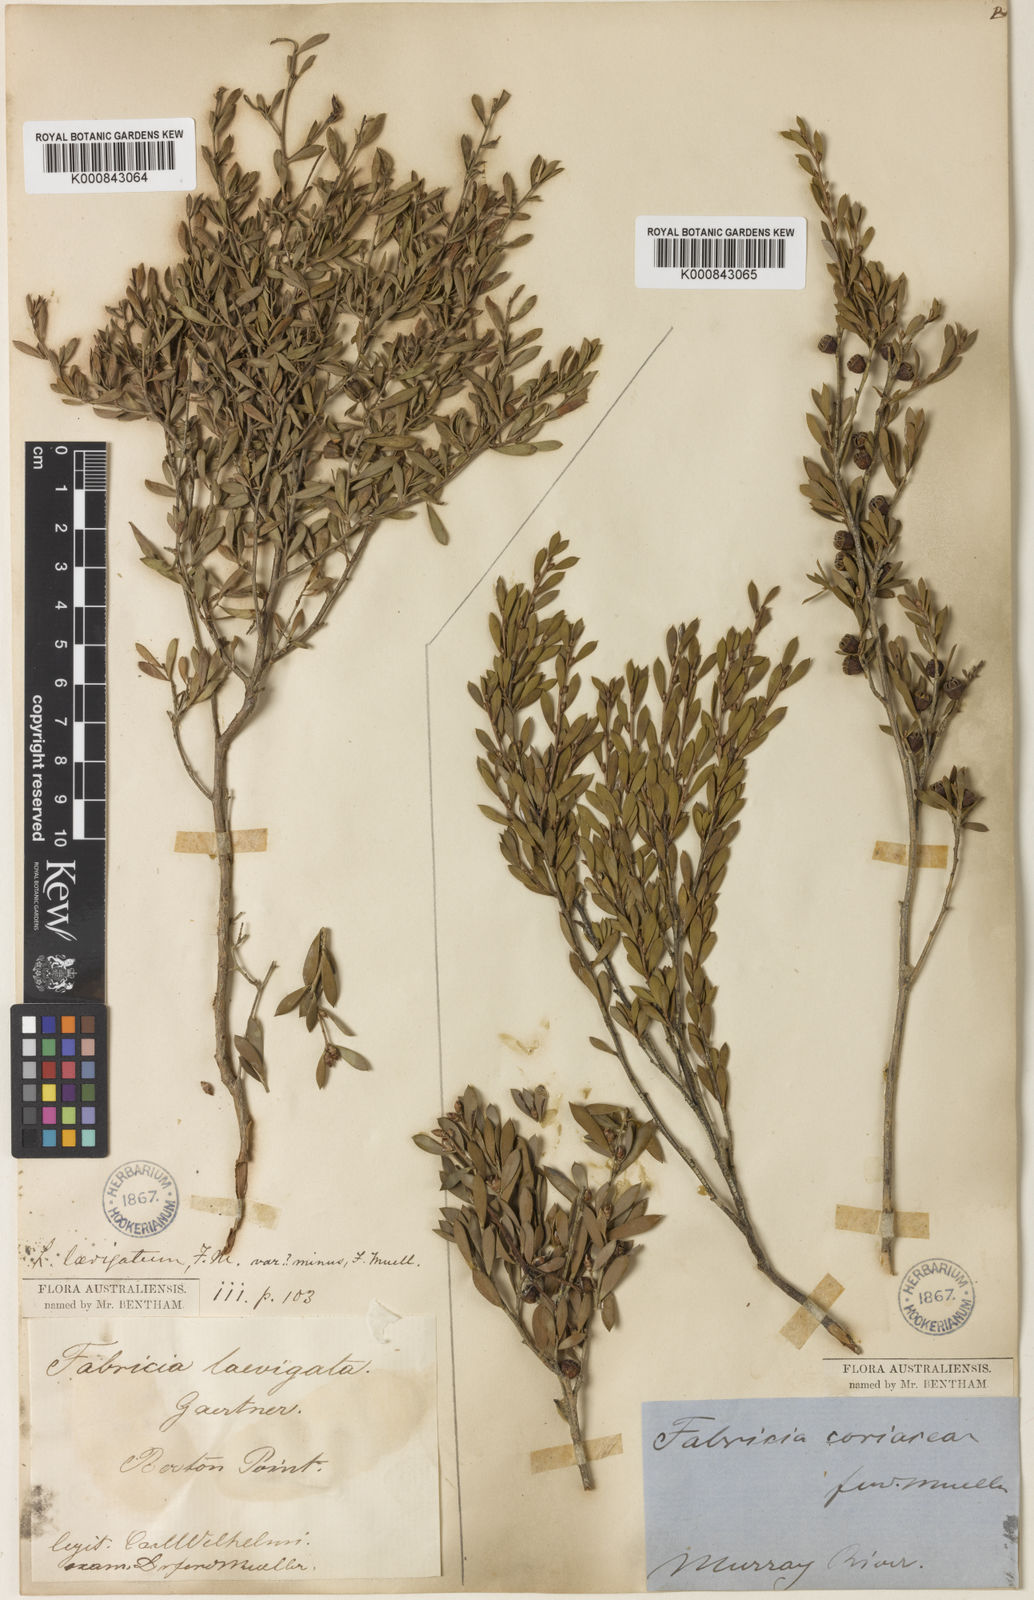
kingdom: Plantae
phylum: Tracheophyta
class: Magnoliopsida
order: Myrtales
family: Myrtaceae
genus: Leptospermum
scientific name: Leptospermum coriaceum
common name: Mallee teatree
